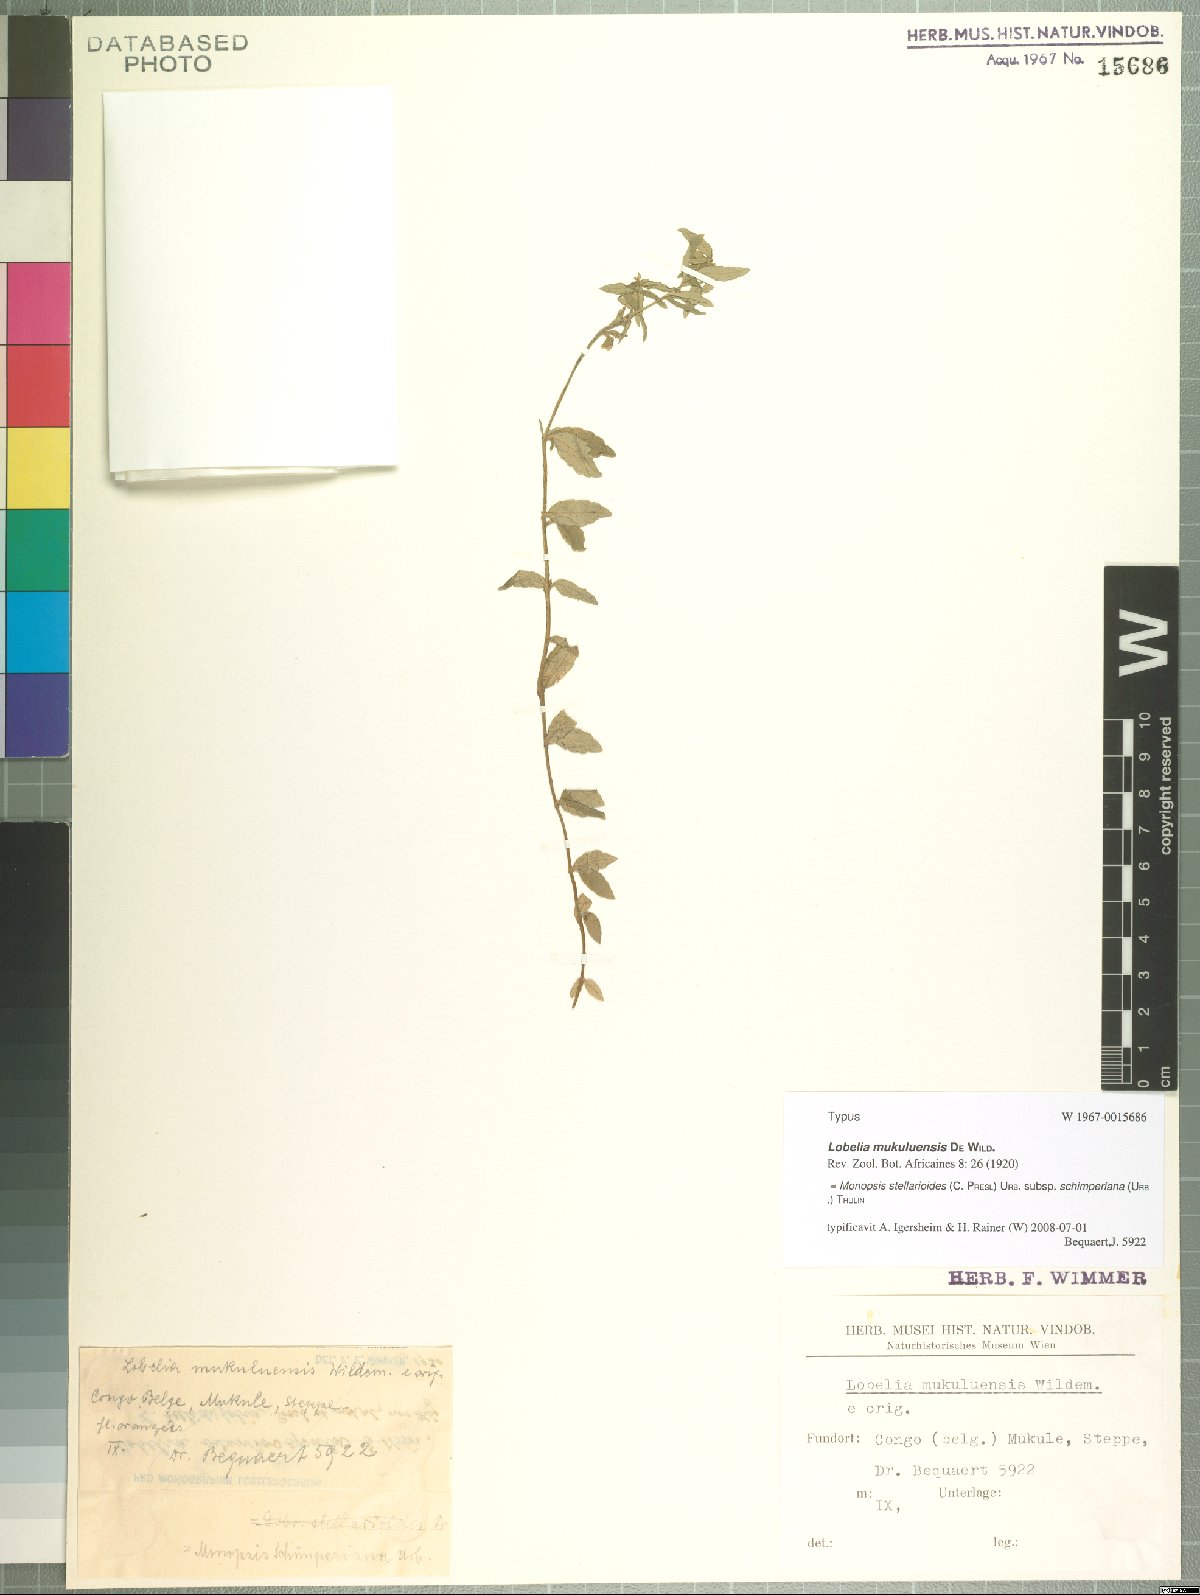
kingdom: Plantae
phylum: Tracheophyta
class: Magnoliopsida
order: Asterales
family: Campanulaceae
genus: Monopsis
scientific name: Monopsis stellarioides
